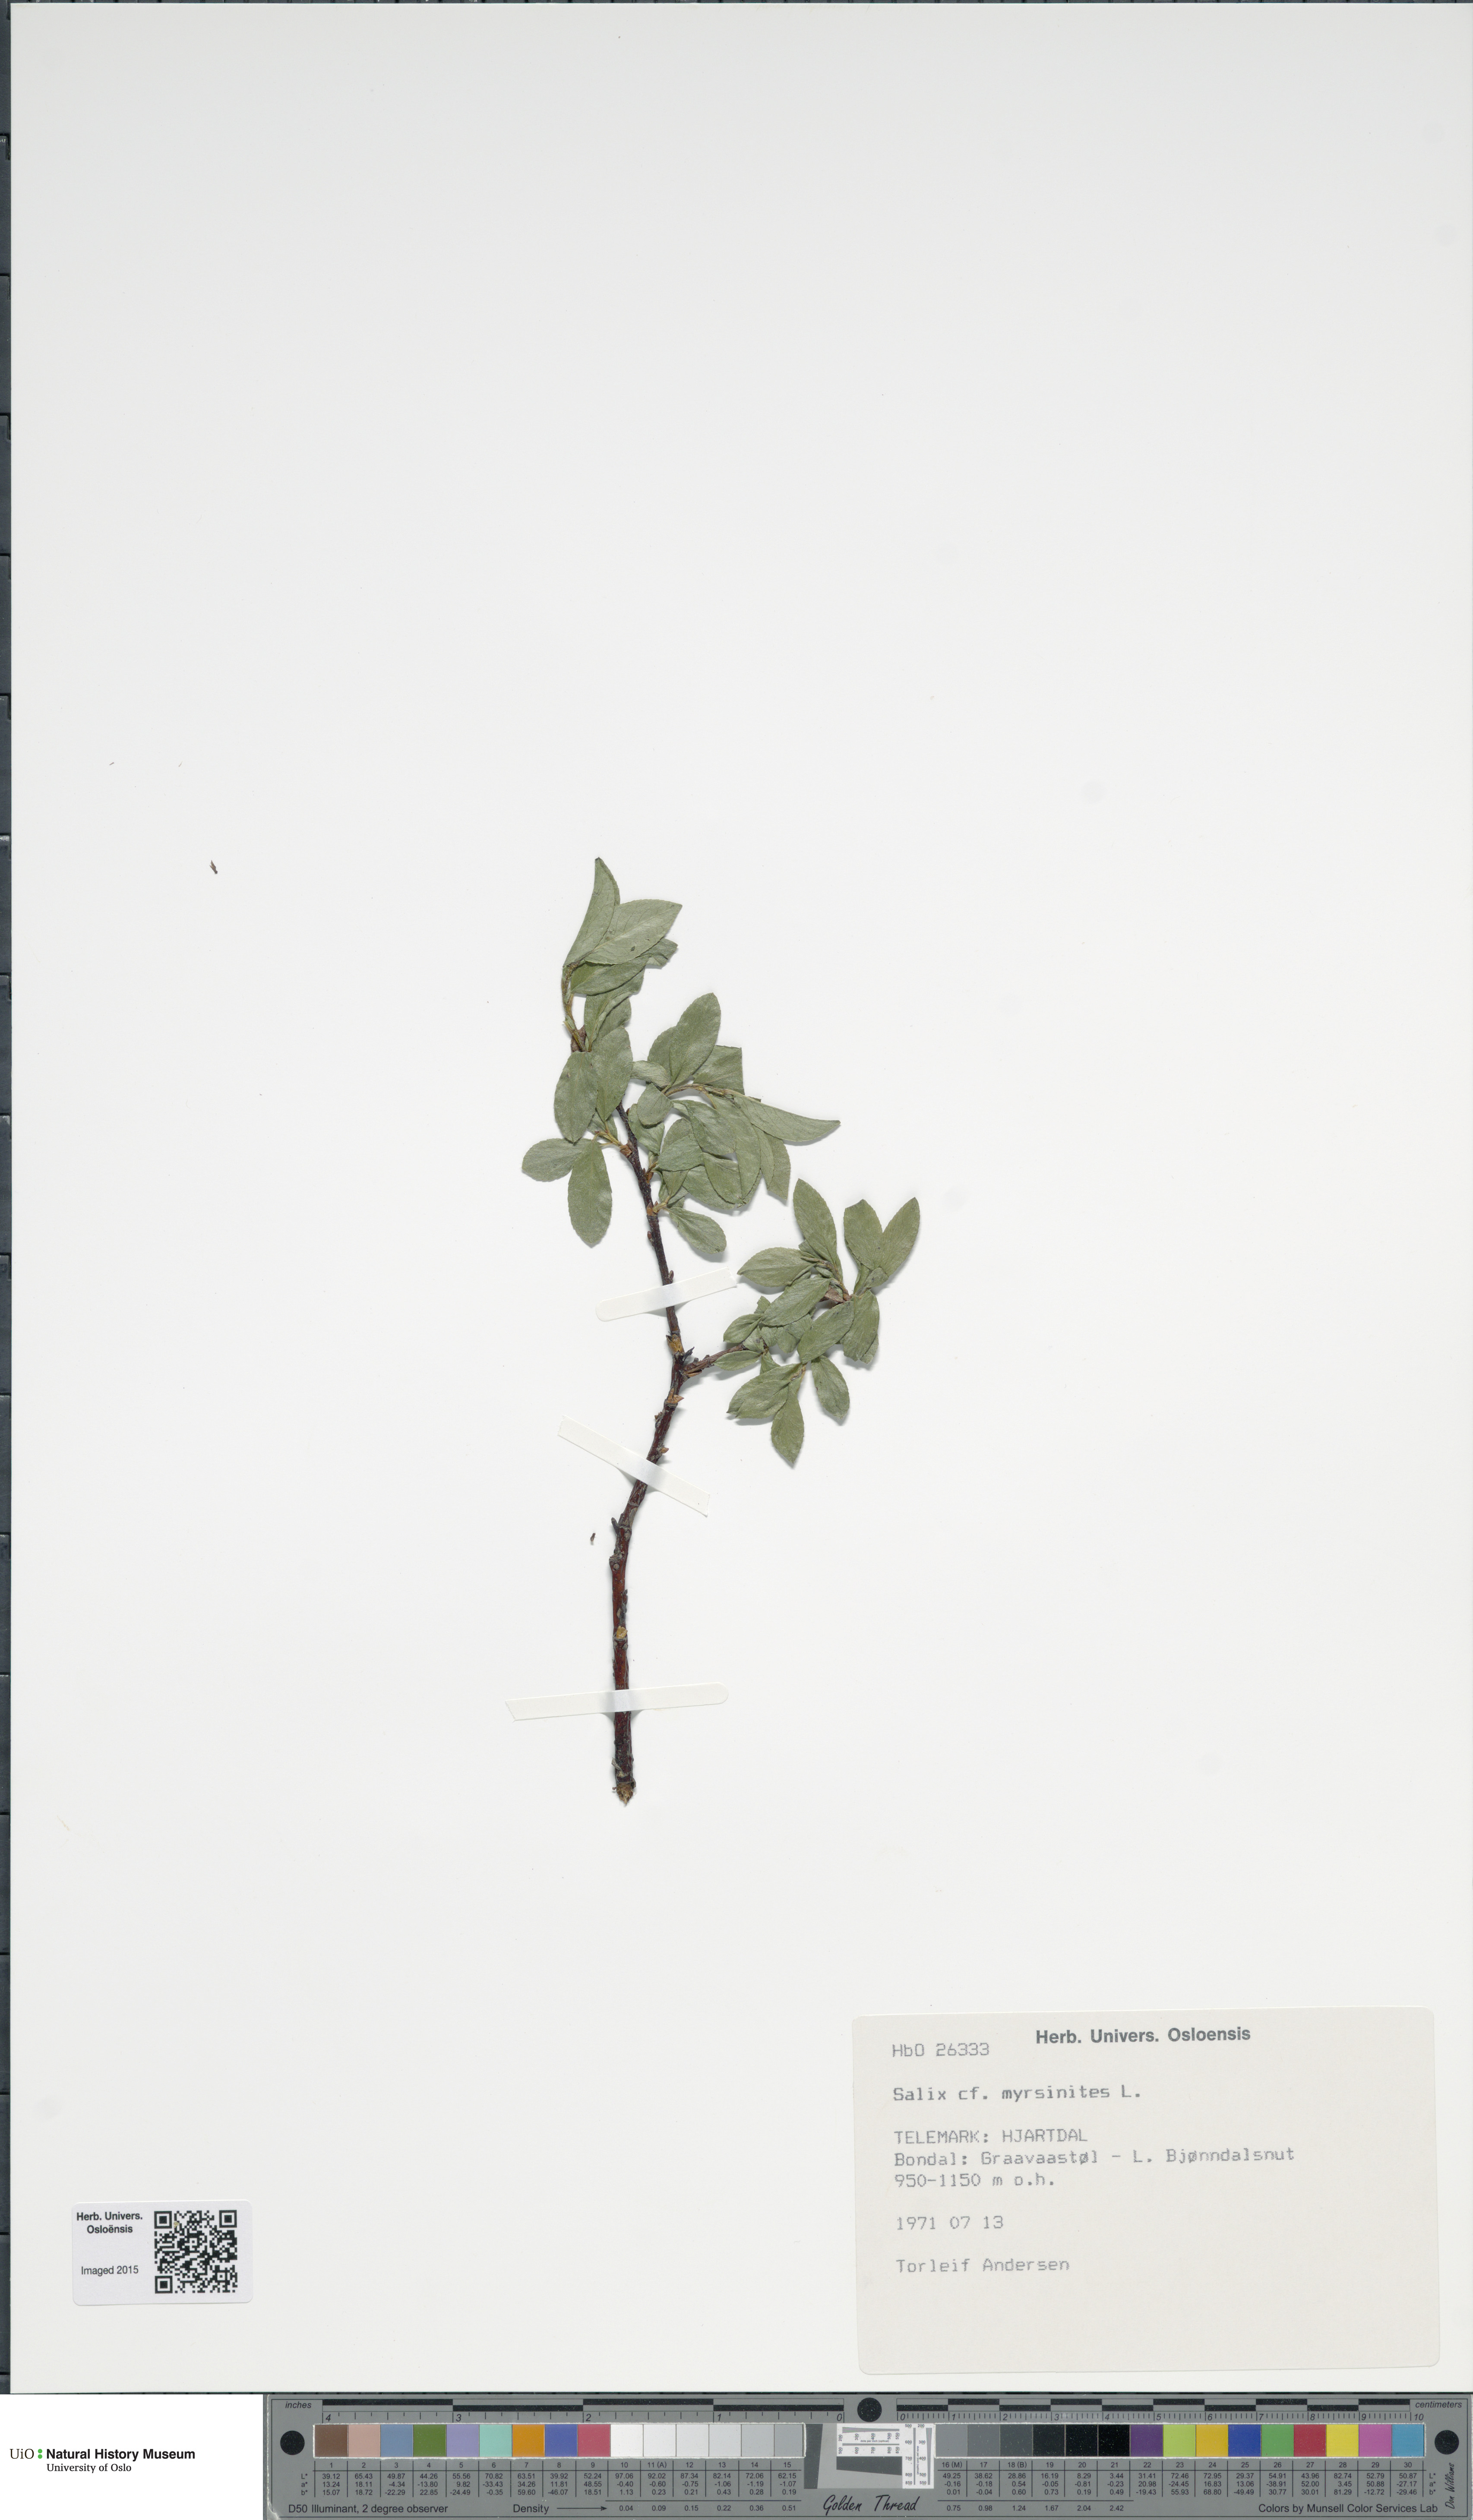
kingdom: Plantae
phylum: Tracheophyta
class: Magnoliopsida
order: Malpighiales
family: Salicaceae
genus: Salix
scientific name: Salix myrsinites
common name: Myrtle willow
